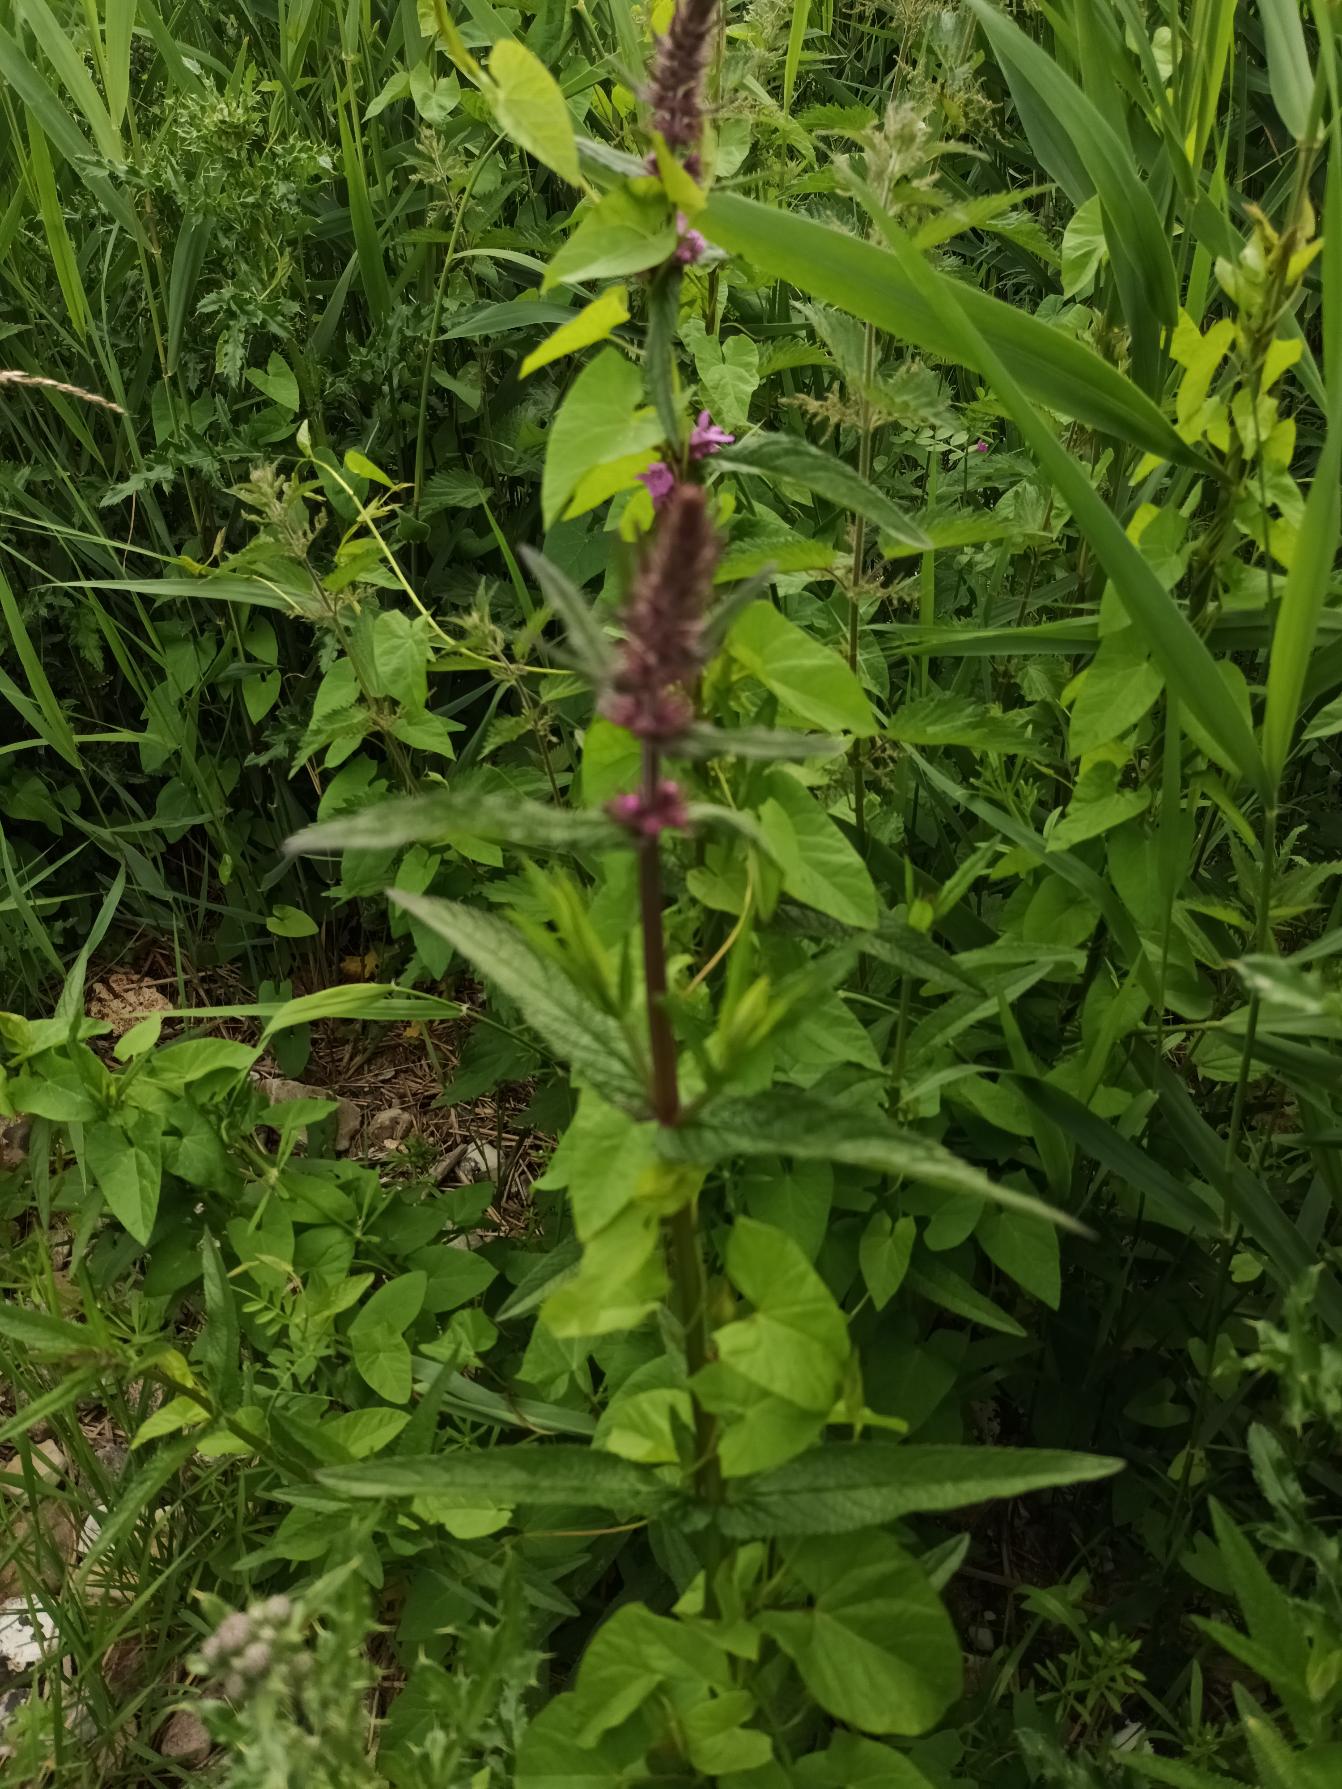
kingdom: Plantae
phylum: Tracheophyta
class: Magnoliopsida
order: Lamiales
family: Lamiaceae
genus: Stachys
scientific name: Stachys palustris
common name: Kær-galtetand
